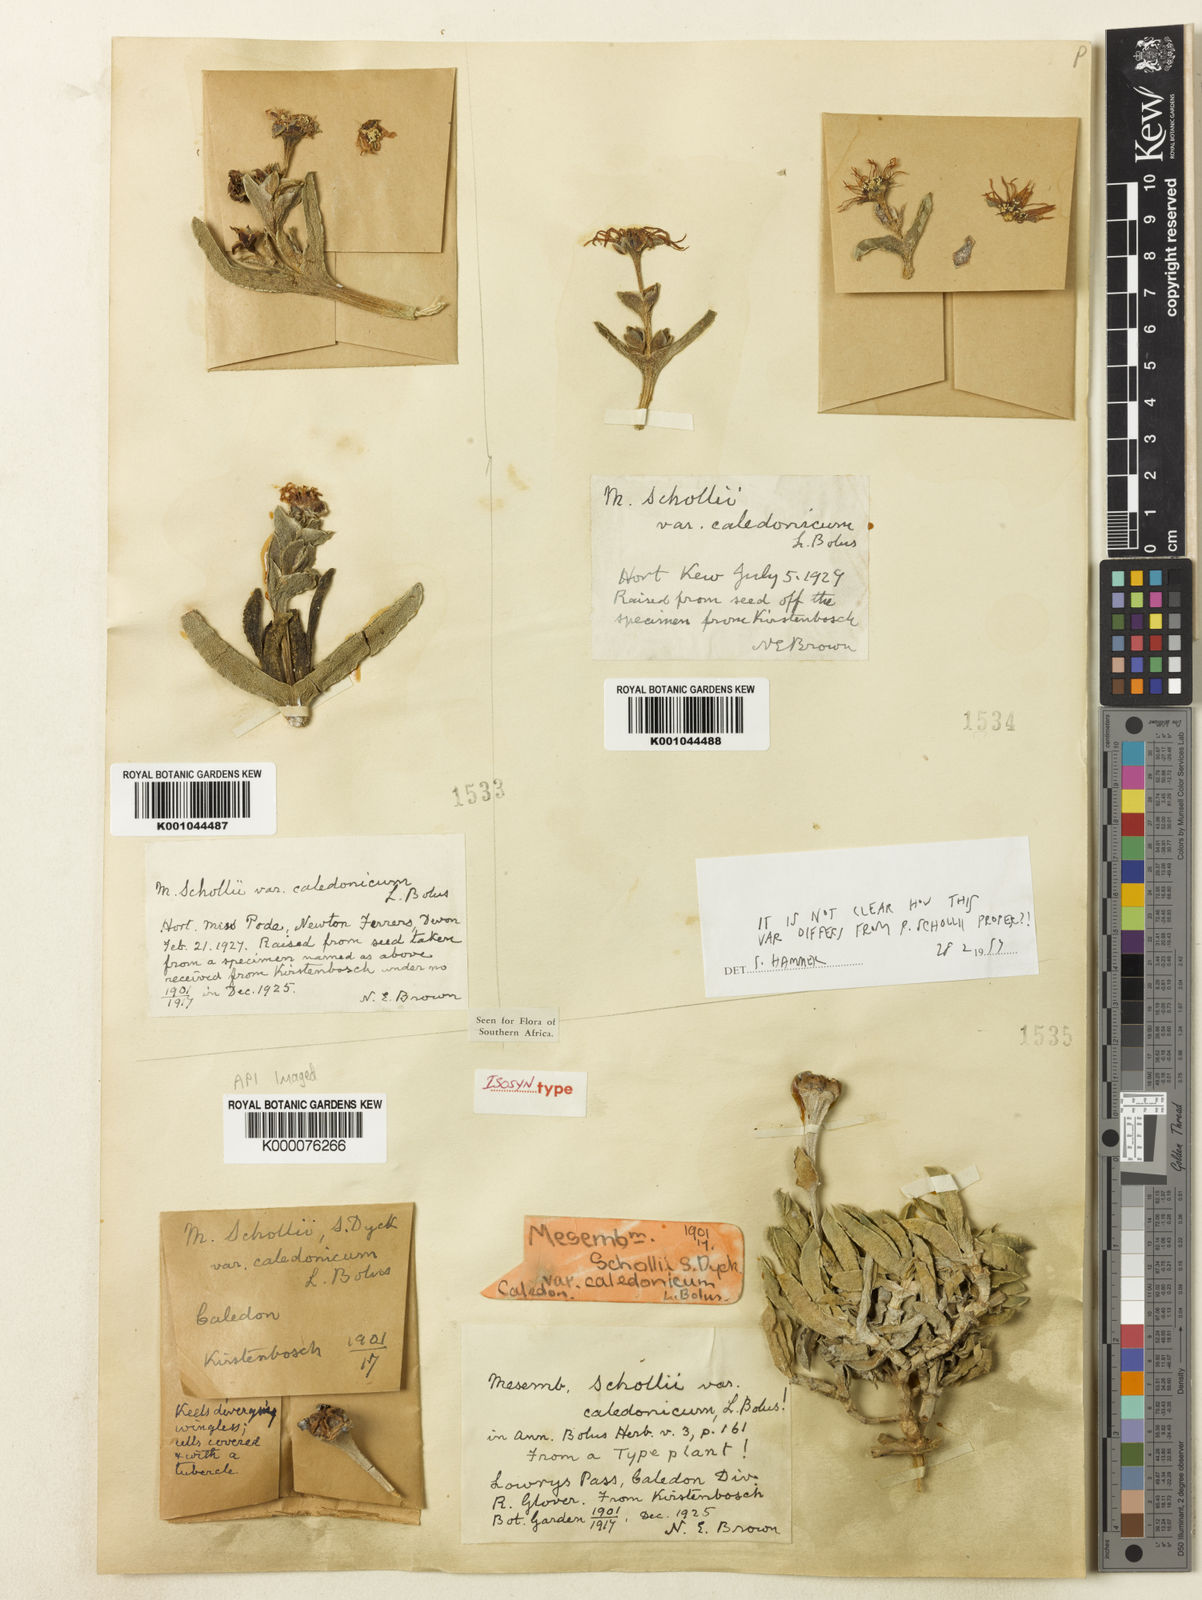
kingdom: Plantae
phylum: Tracheophyta
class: Magnoliopsida
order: Caryophyllales
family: Aizoaceae
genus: Ruschia
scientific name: Ruschia schollii
